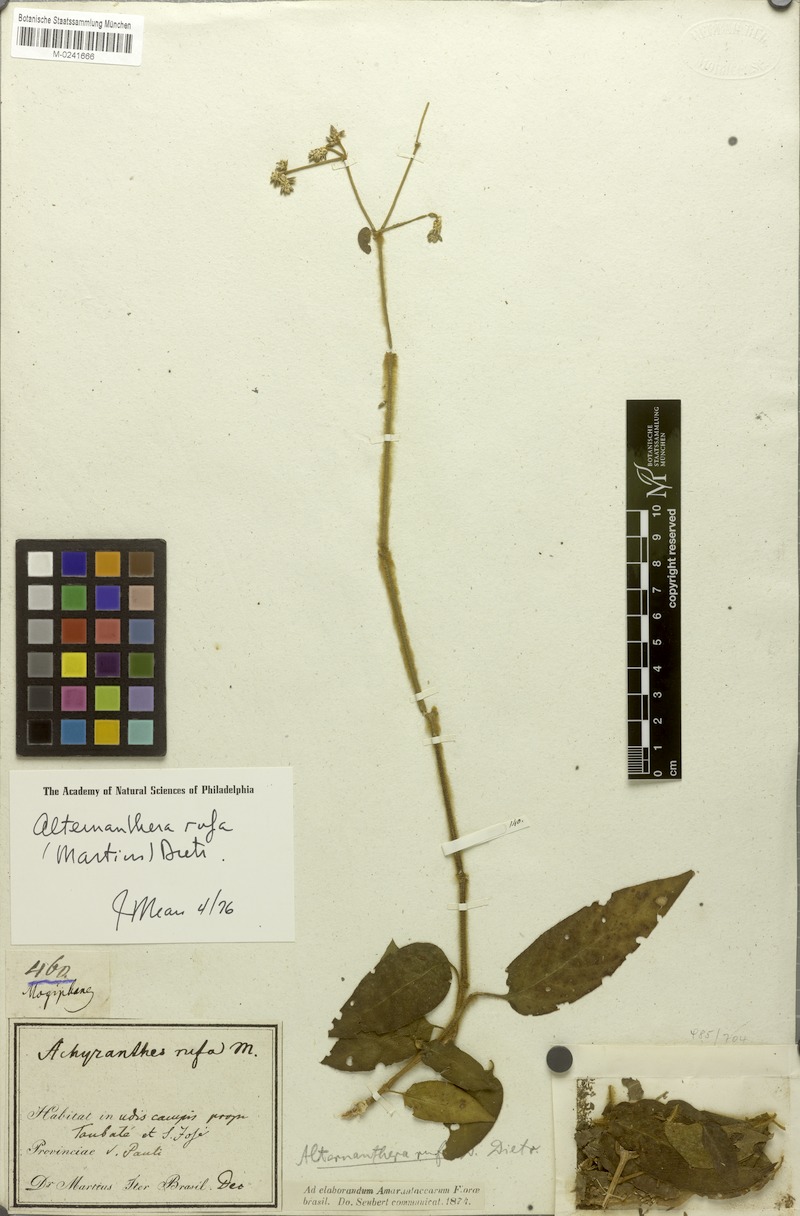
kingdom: Plantae
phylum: Tracheophyta
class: Magnoliopsida
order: Caryophyllales
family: Amaranthaceae
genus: Alternanthera
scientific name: Alternanthera rufa
